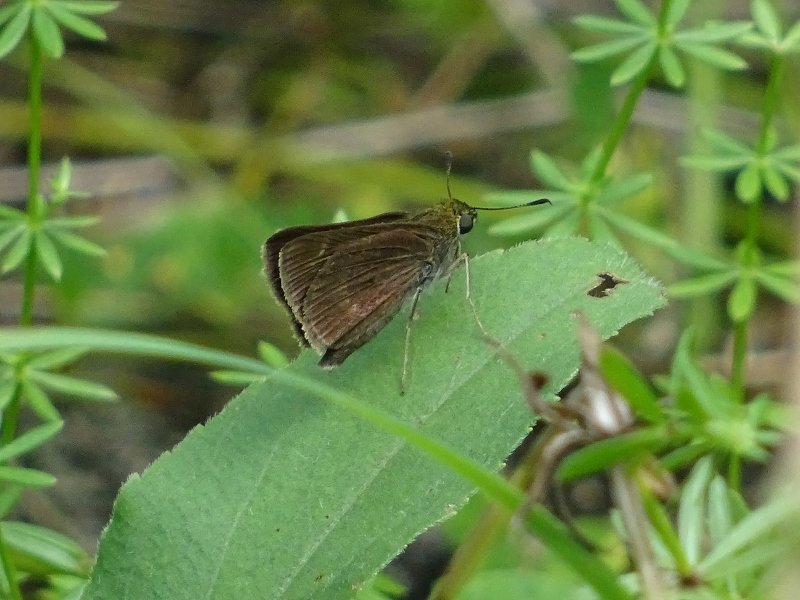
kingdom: Animalia
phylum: Arthropoda
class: Insecta
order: Lepidoptera
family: Hesperiidae
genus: Euphyes
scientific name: Euphyes vestris
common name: Dun Skipper
